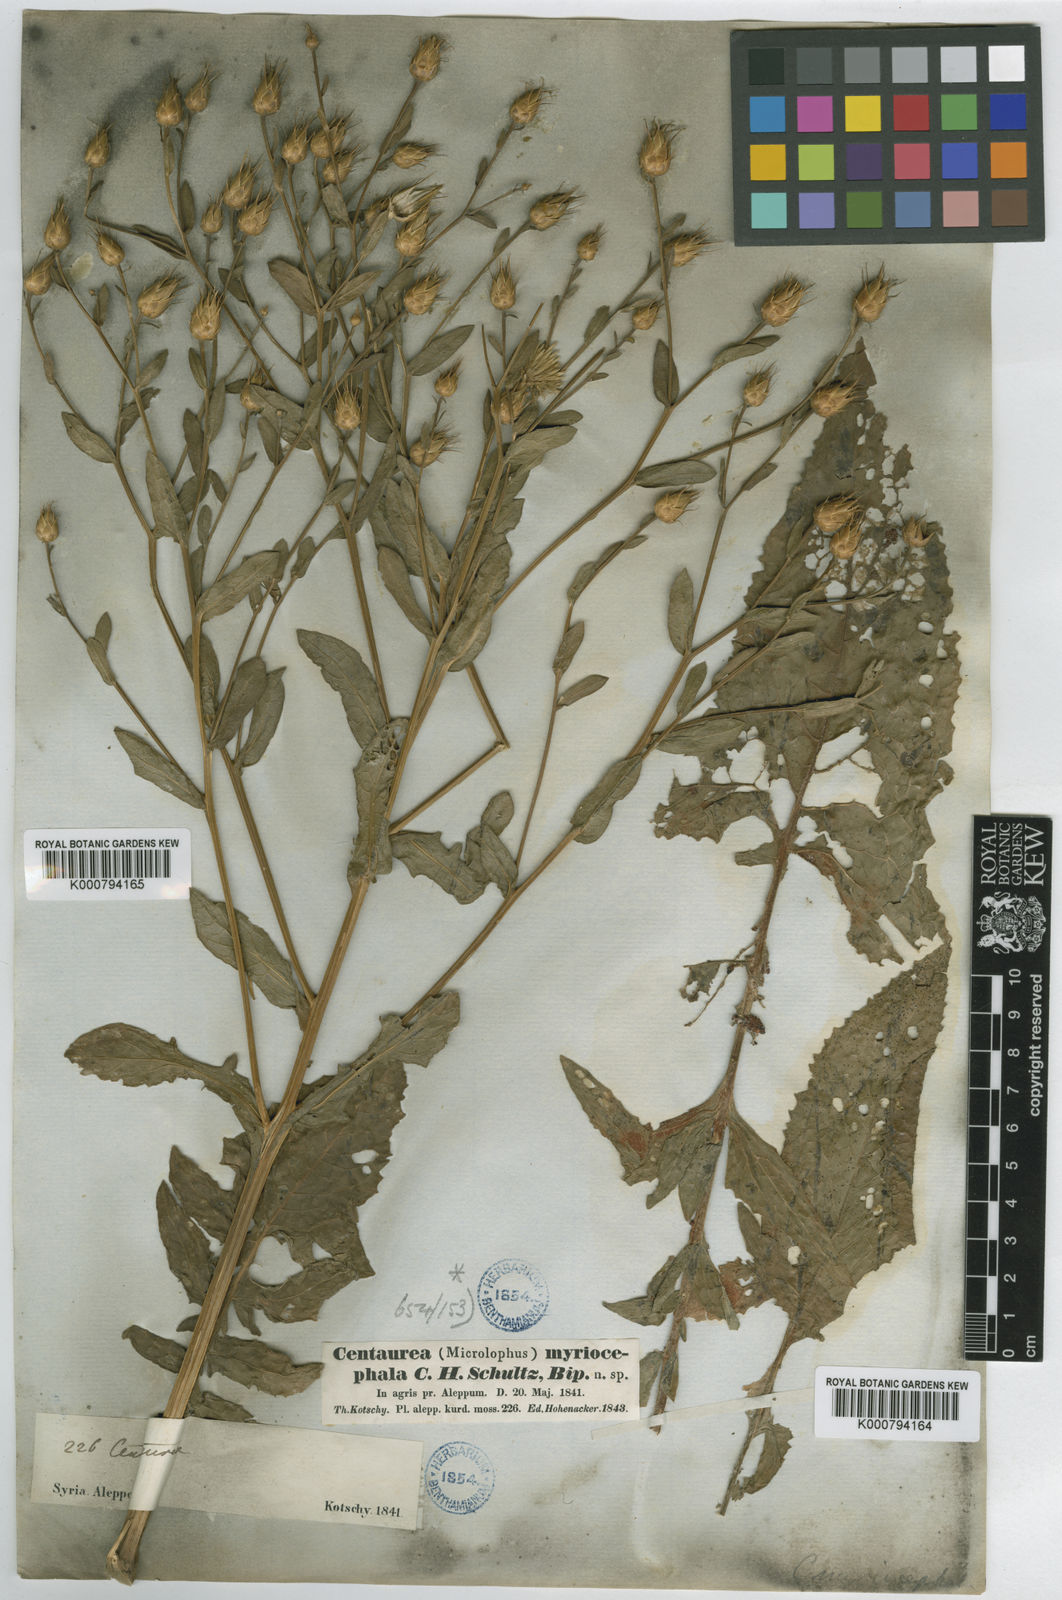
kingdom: Plantae
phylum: Tracheophyta
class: Magnoliopsida
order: Asterales
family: Asteraceae
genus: Centaurea
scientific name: Centaurea rigida
